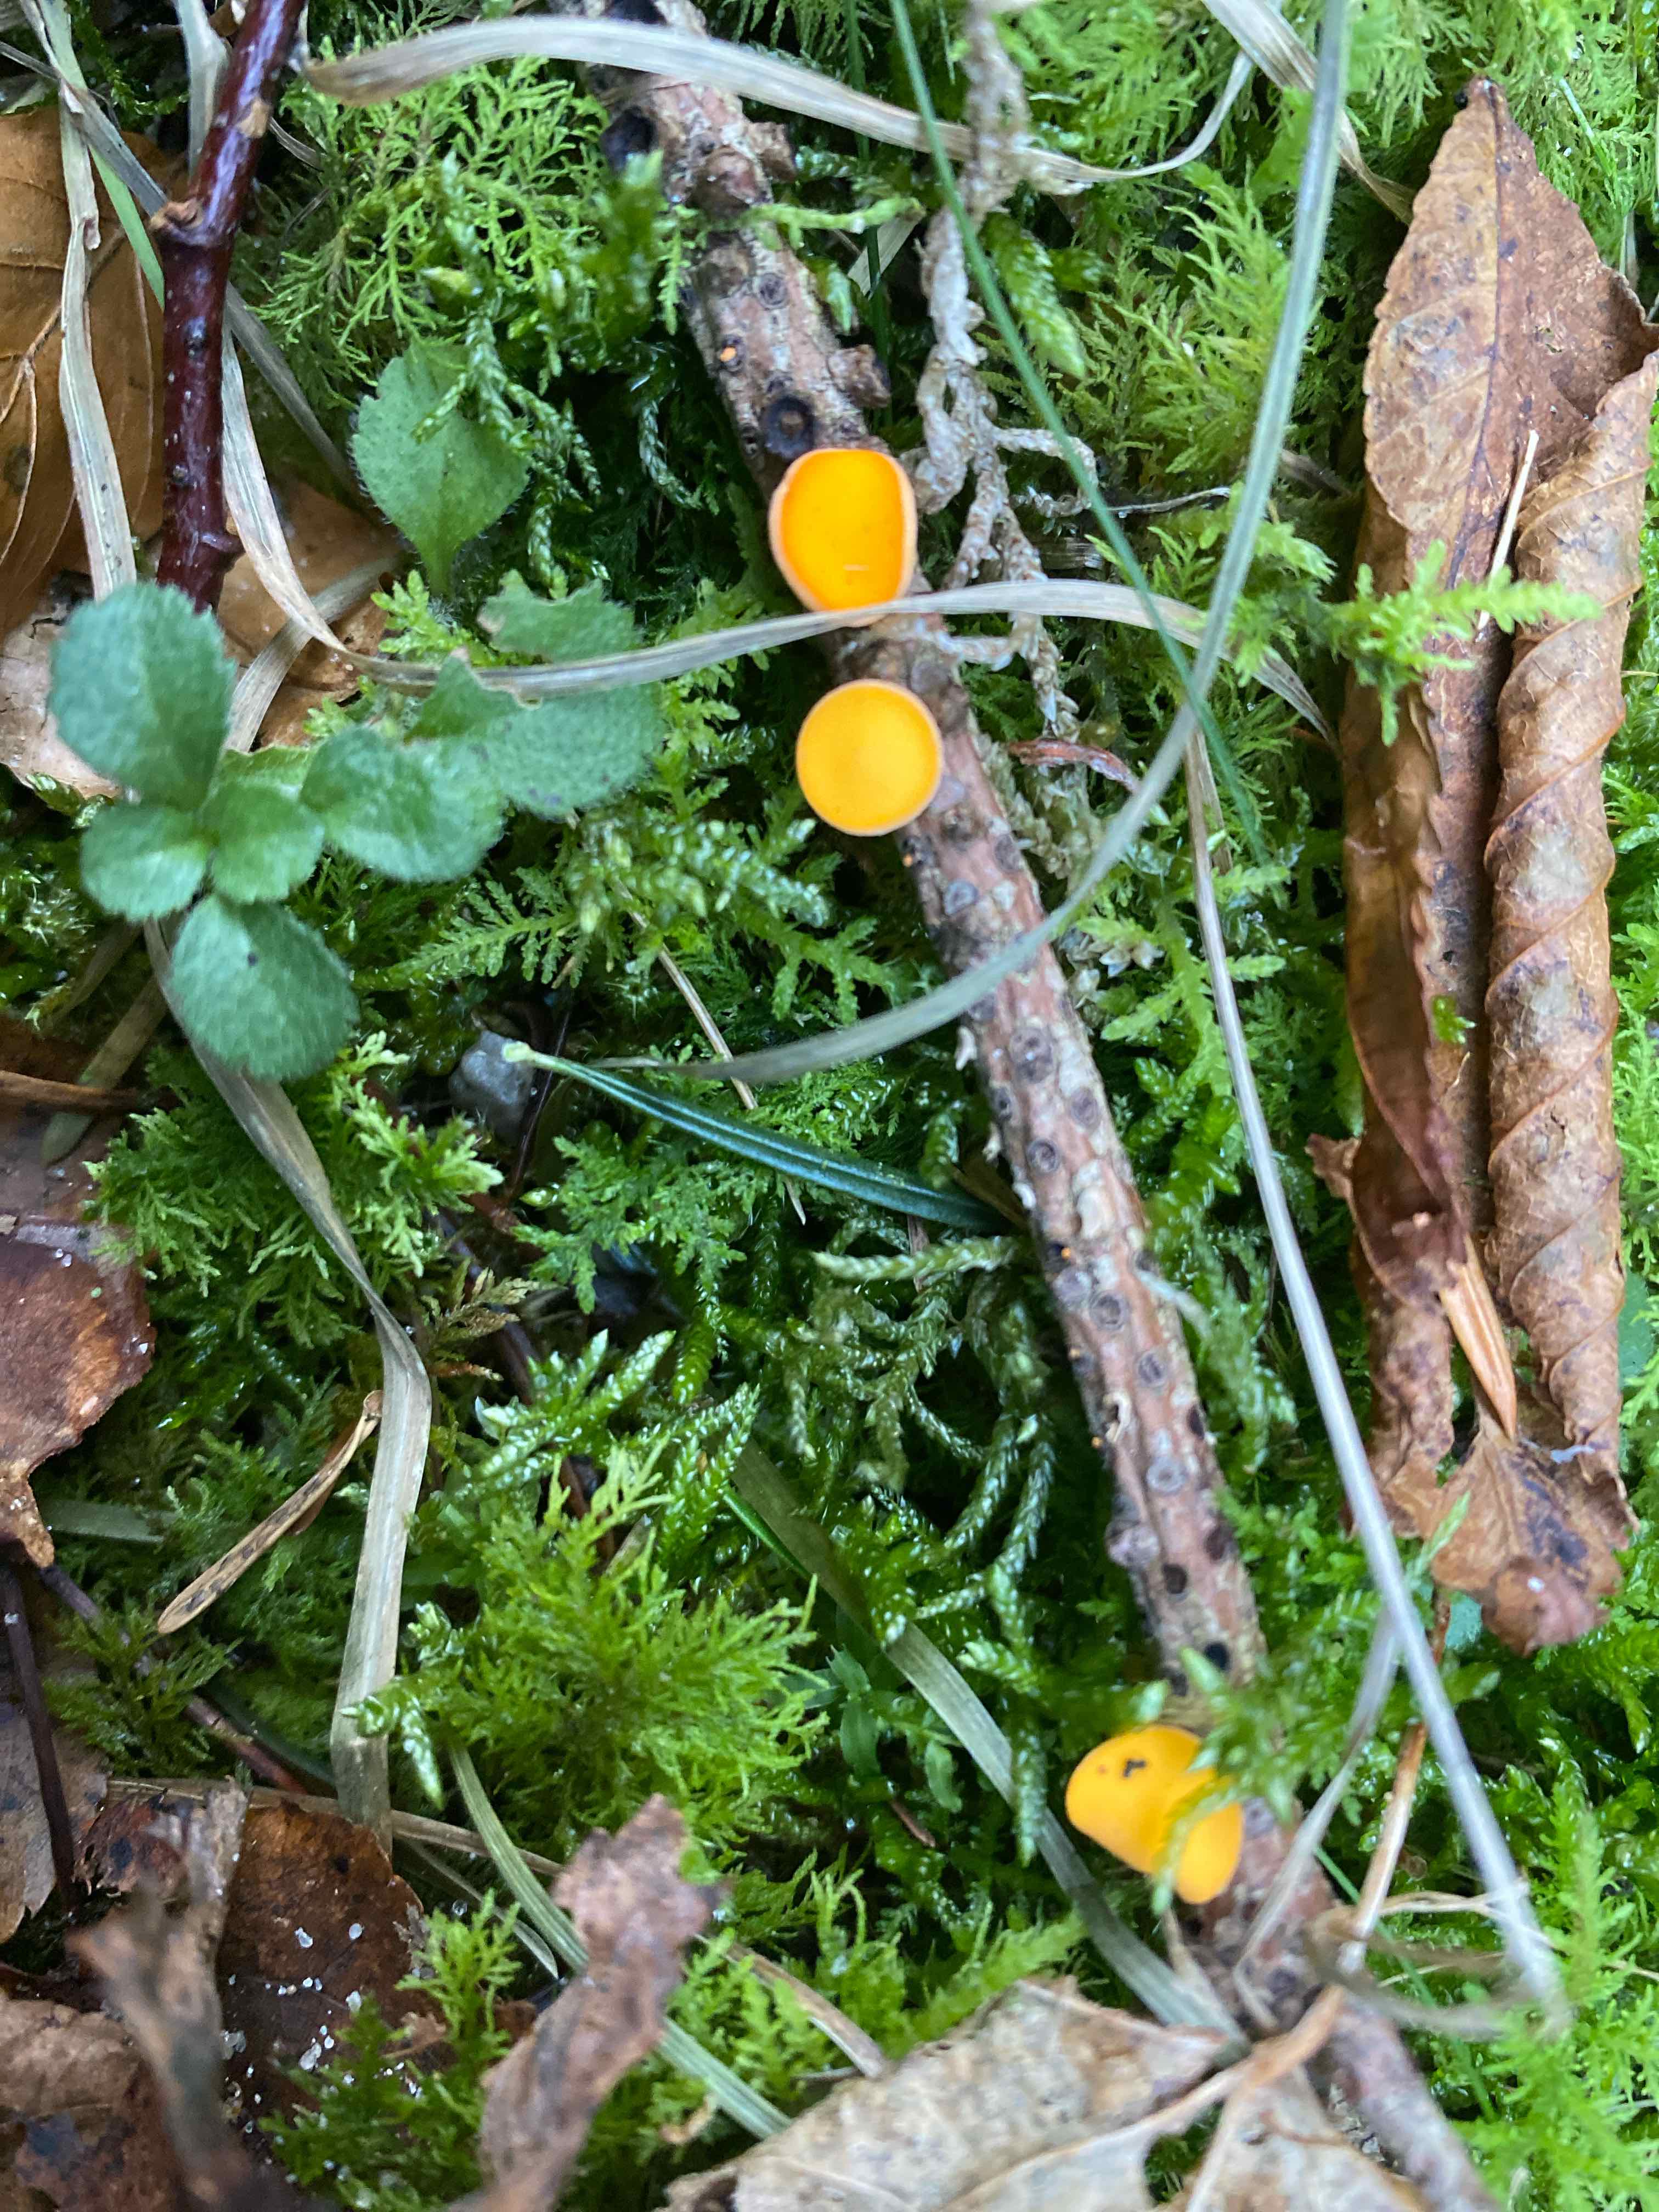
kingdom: Fungi
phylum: Ascomycota
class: Pezizomycetes
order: Pezizales
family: Sarcoscyphaceae
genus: Pithya
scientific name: Pithya vulgaris
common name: stor dukatbæger
